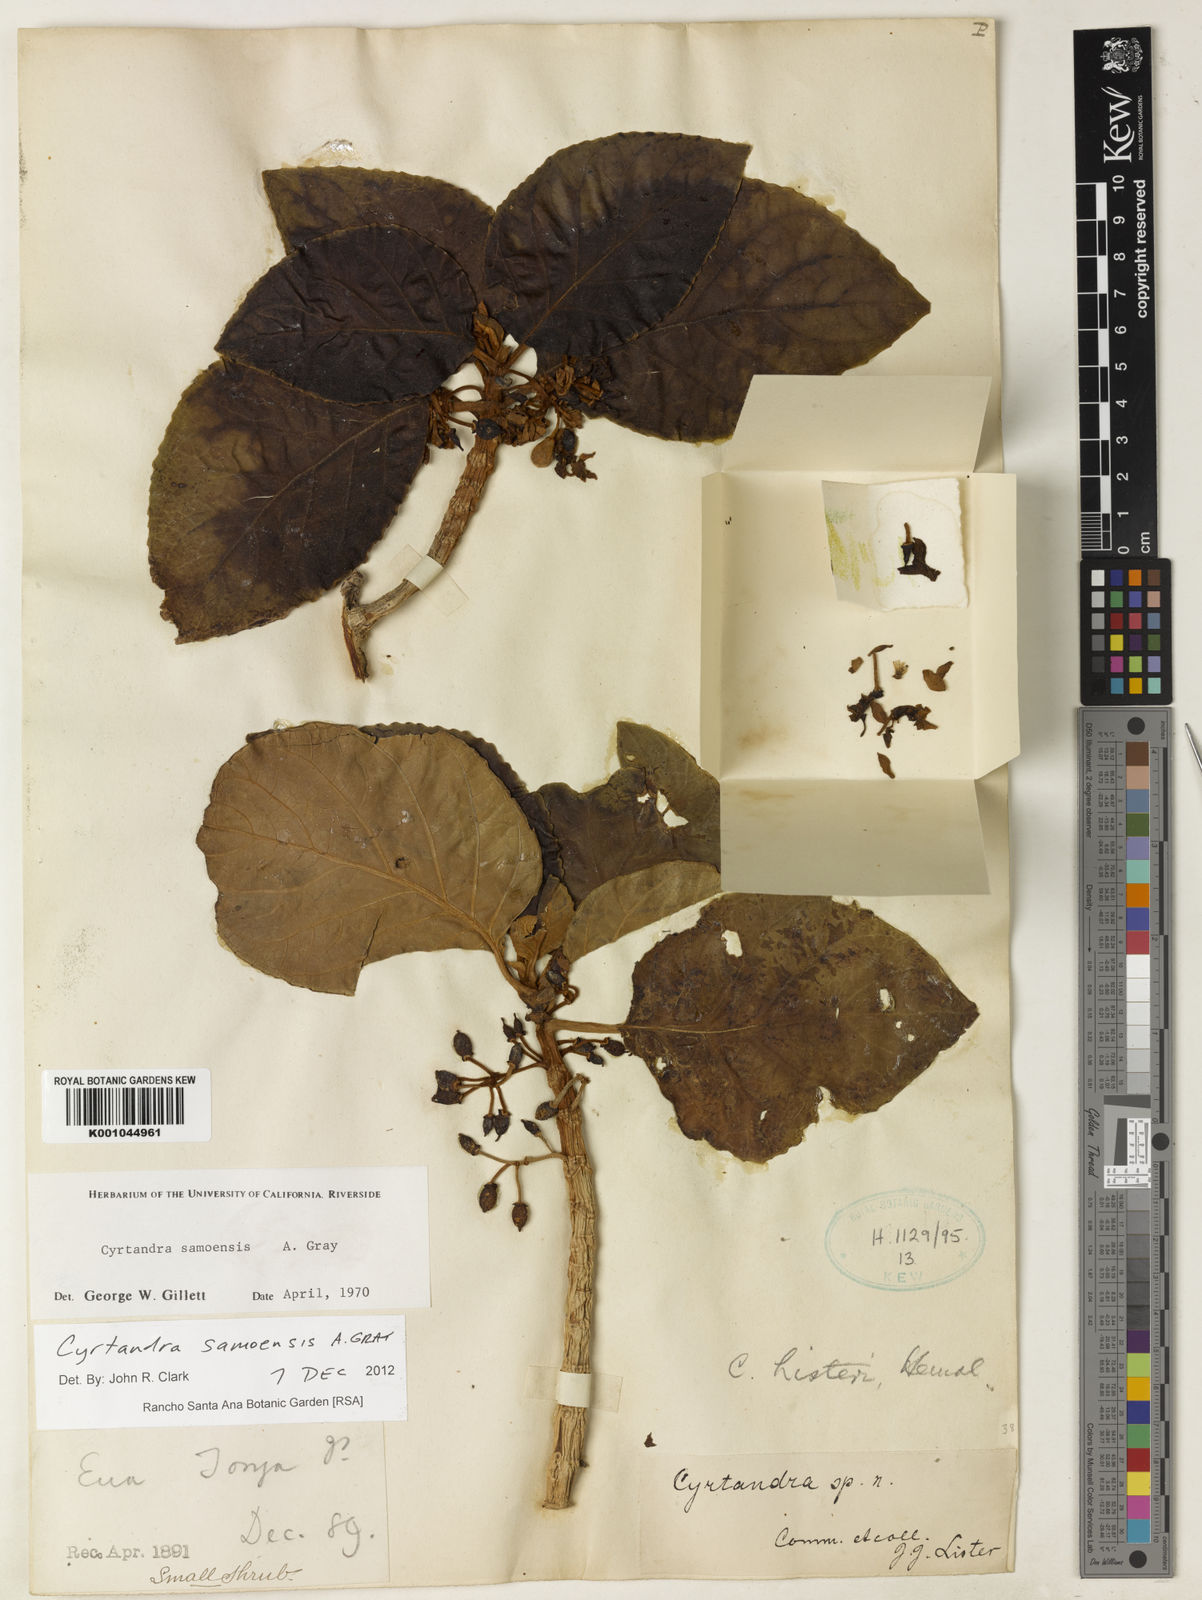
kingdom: Plantae
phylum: Tracheophyta
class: Magnoliopsida
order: Lamiales
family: Gesneriaceae
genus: Cyrtandra
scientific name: Cyrtandra samoensis
